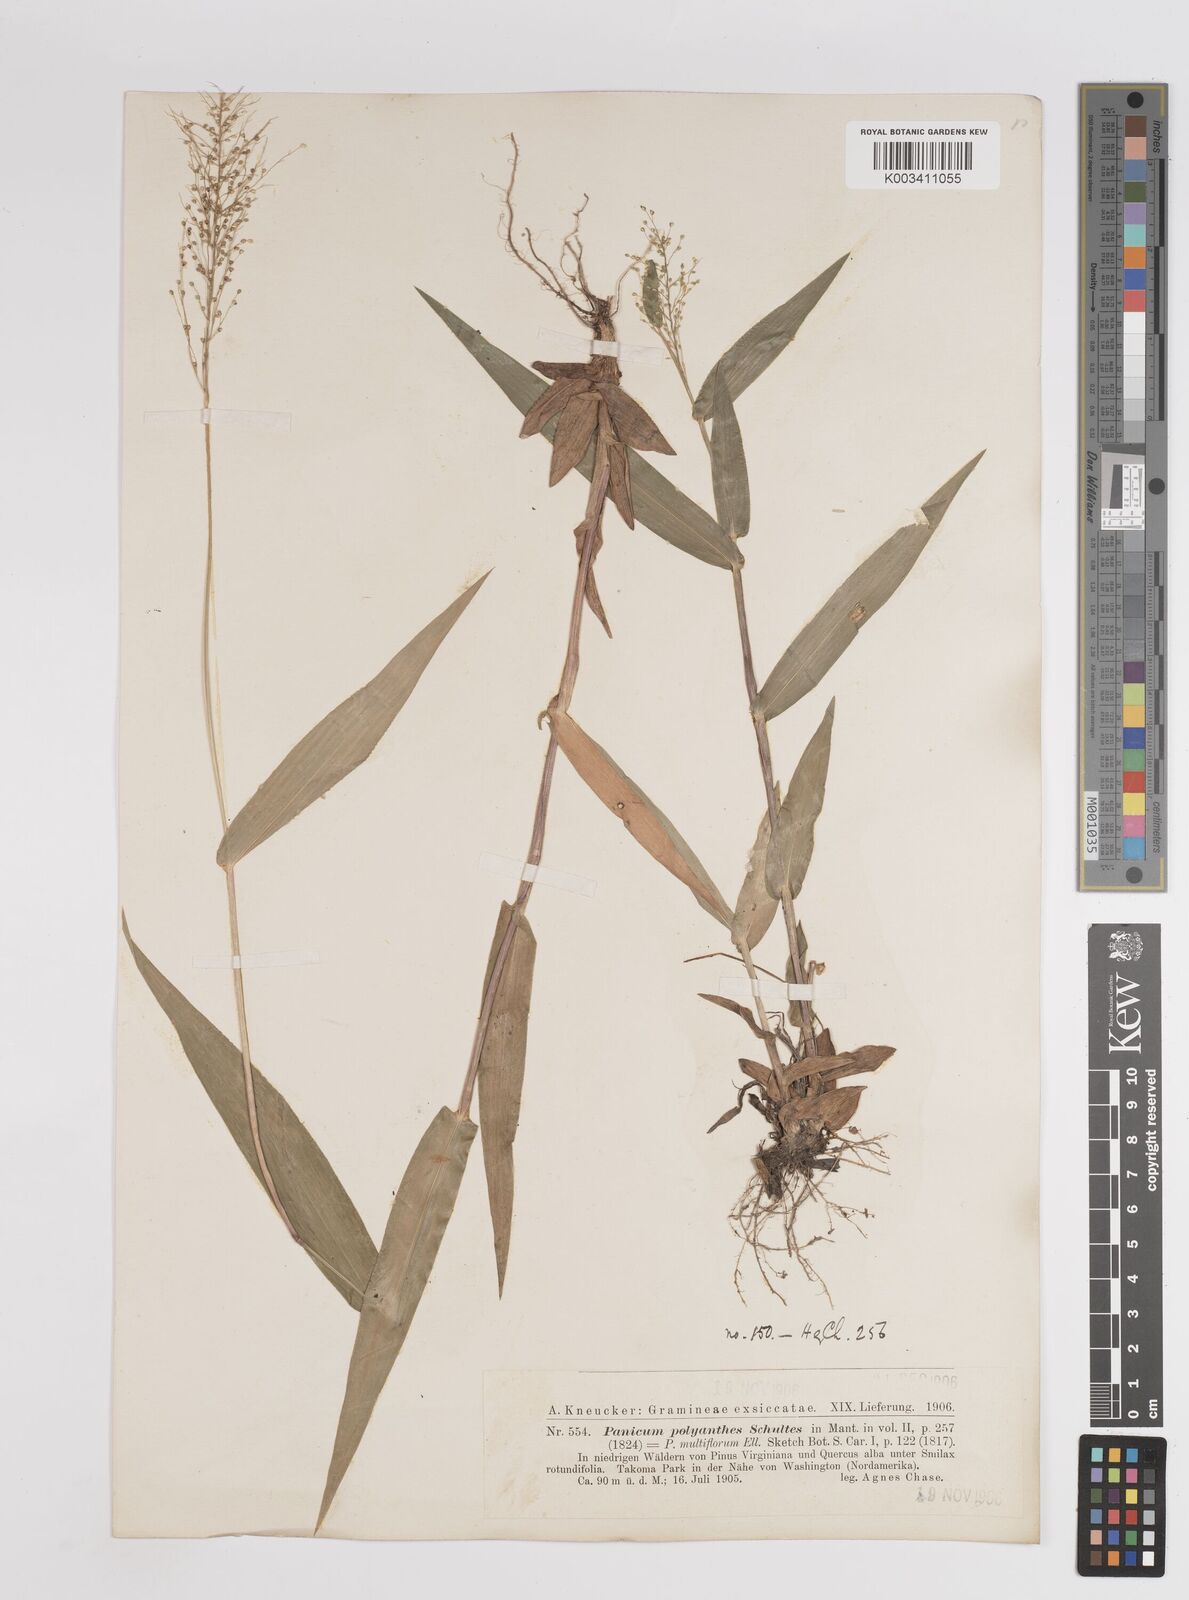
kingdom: Plantae
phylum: Tracheophyta
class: Liliopsida
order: Poales
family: Poaceae
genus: Dichanthelium
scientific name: Dichanthelium polyanthes
